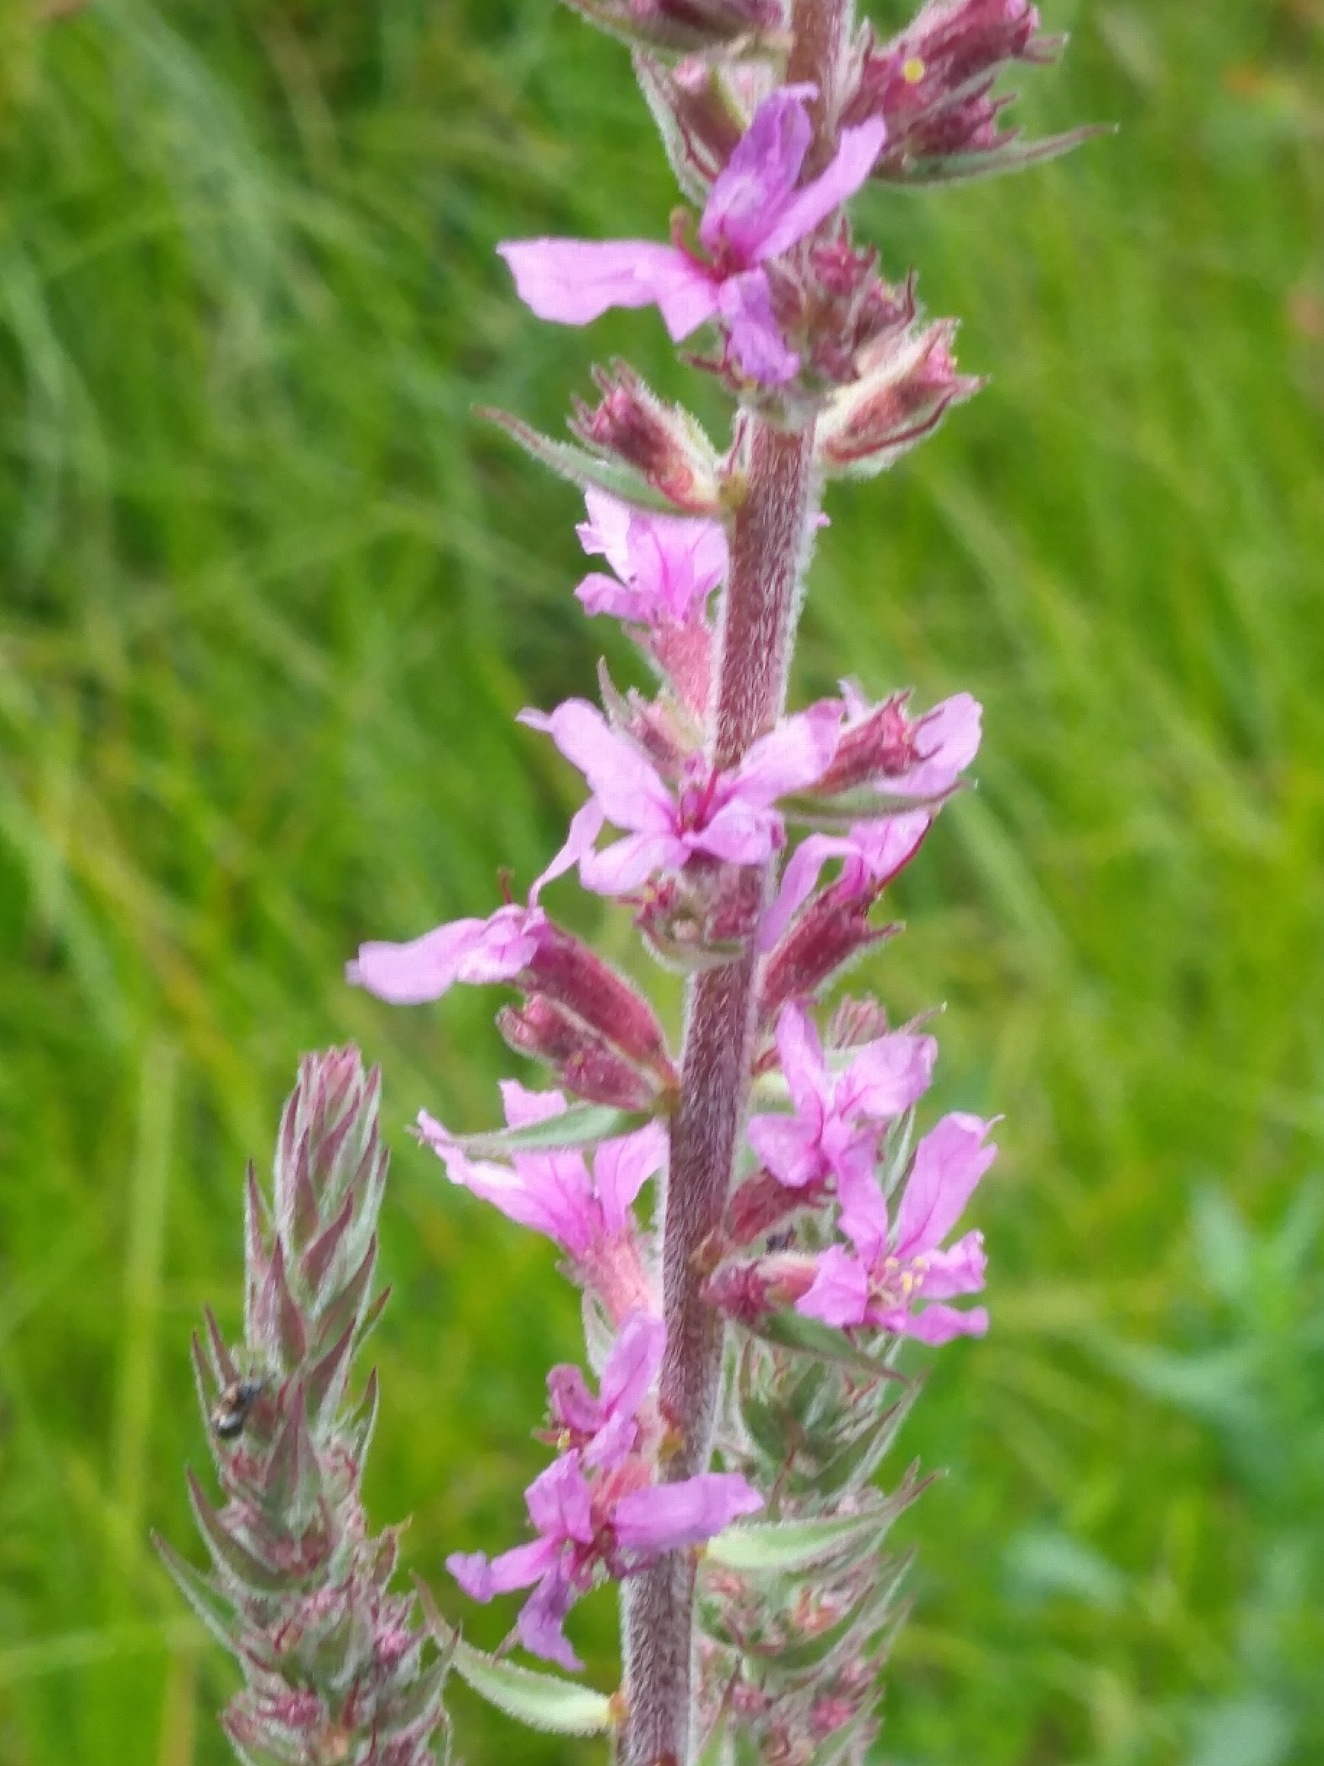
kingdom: Plantae
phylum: Tracheophyta
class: Magnoliopsida
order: Myrtales
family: Lythraceae
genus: Lythrum
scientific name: Lythrum salicaria
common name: Kattehale
